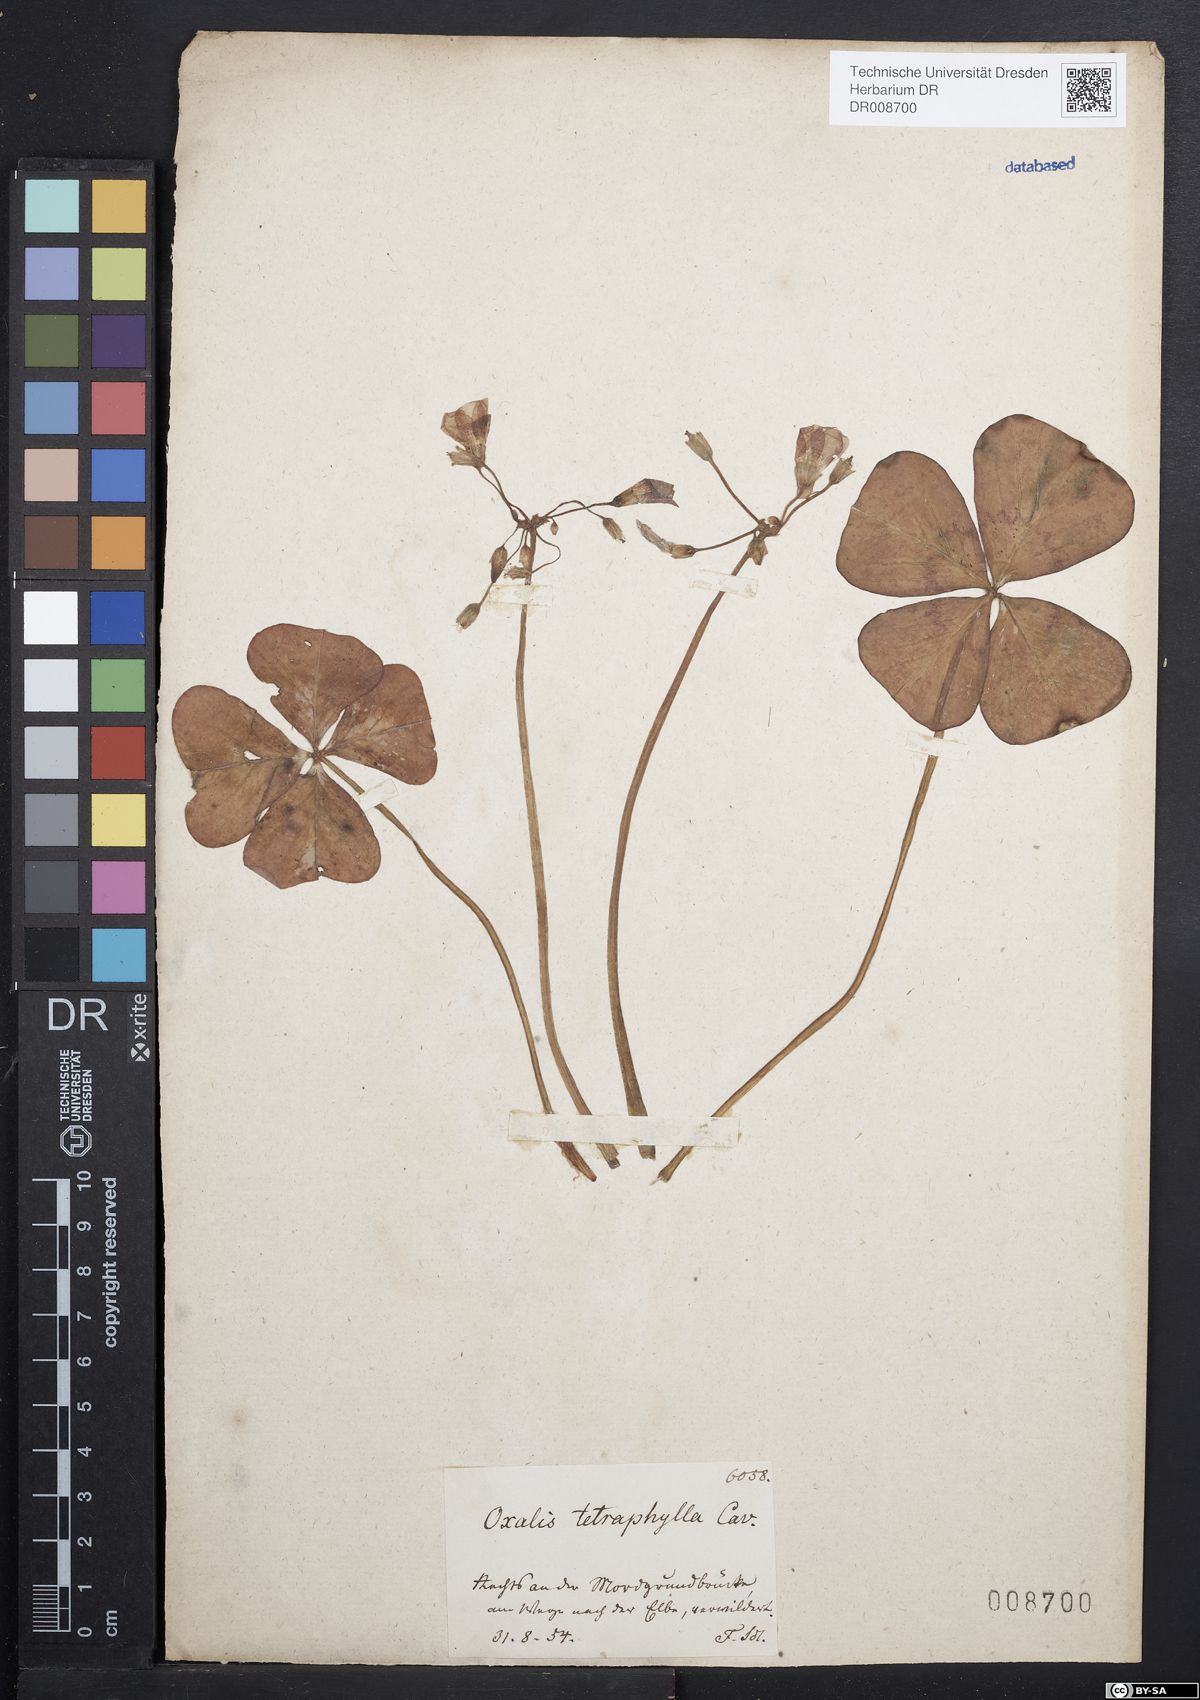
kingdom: Plantae
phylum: Tracheophyta
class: Magnoliopsida
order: Oxalidales
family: Oxalidaceae
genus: Oxalis
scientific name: Oxalis tetraphylla
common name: Four-leaved pink-sorrel
